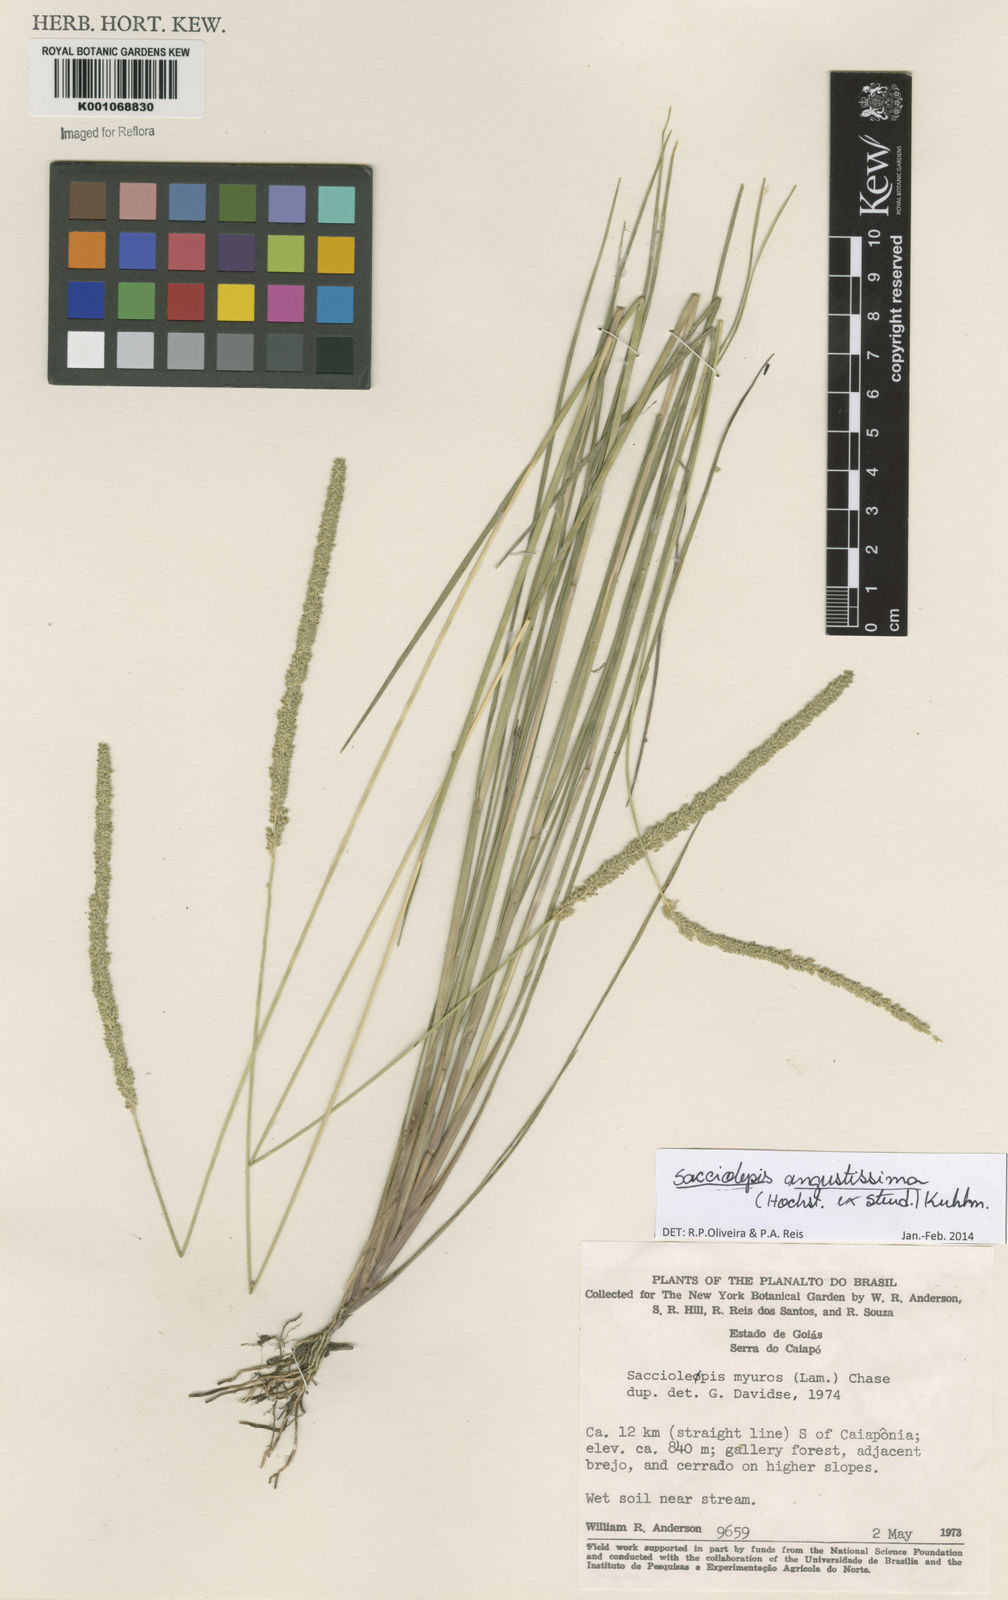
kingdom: Plantae
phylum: Tracheophyta
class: Liliopsida
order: Poales
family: Poaceae
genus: Sacciolepis
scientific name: Sacciolepis angustissima
